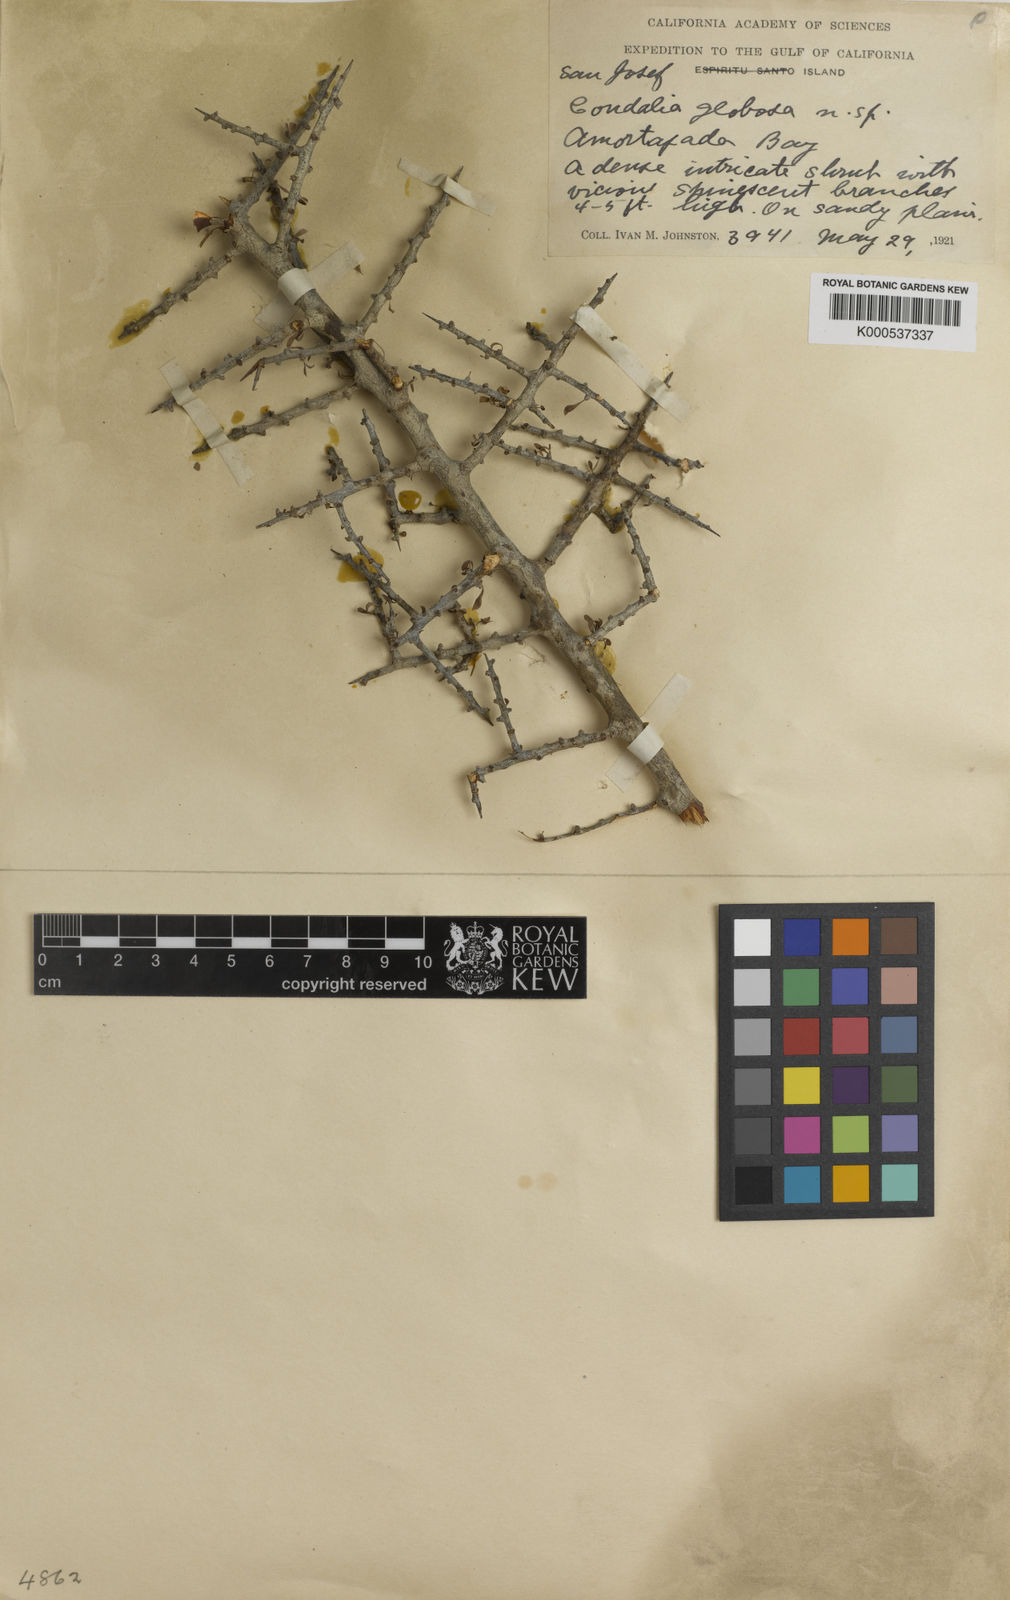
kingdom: Plantae
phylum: Tracheophyta
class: Magnoliopsida
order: Rosales
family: Rhamnaceae
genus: Condalia
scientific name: Condalia globosa
